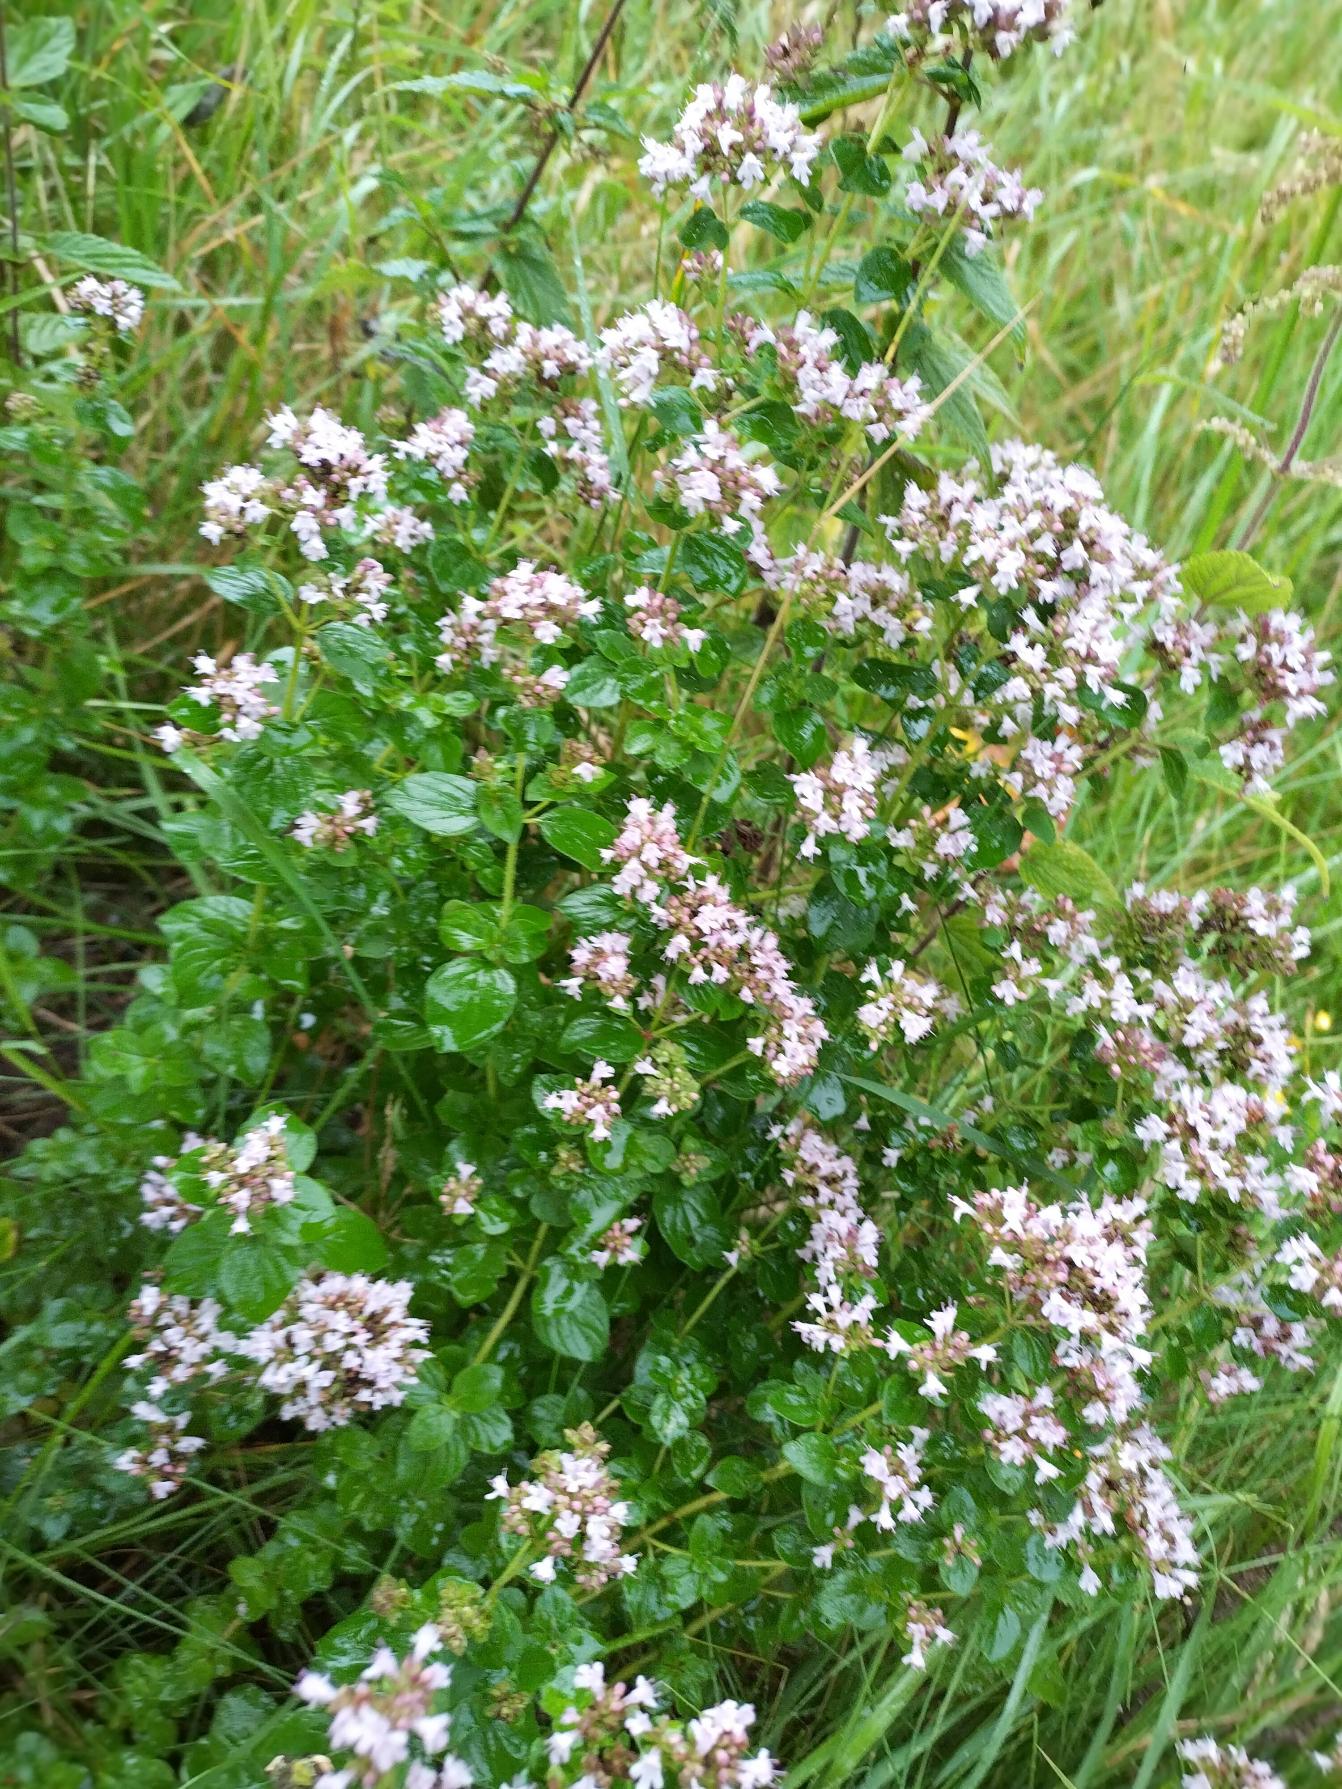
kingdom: Plantae
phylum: Tracheophyta
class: Magnoliopsida
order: Lamiales
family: Lamiaceae
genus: Origanum
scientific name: Origanum vulgare
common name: Merian
